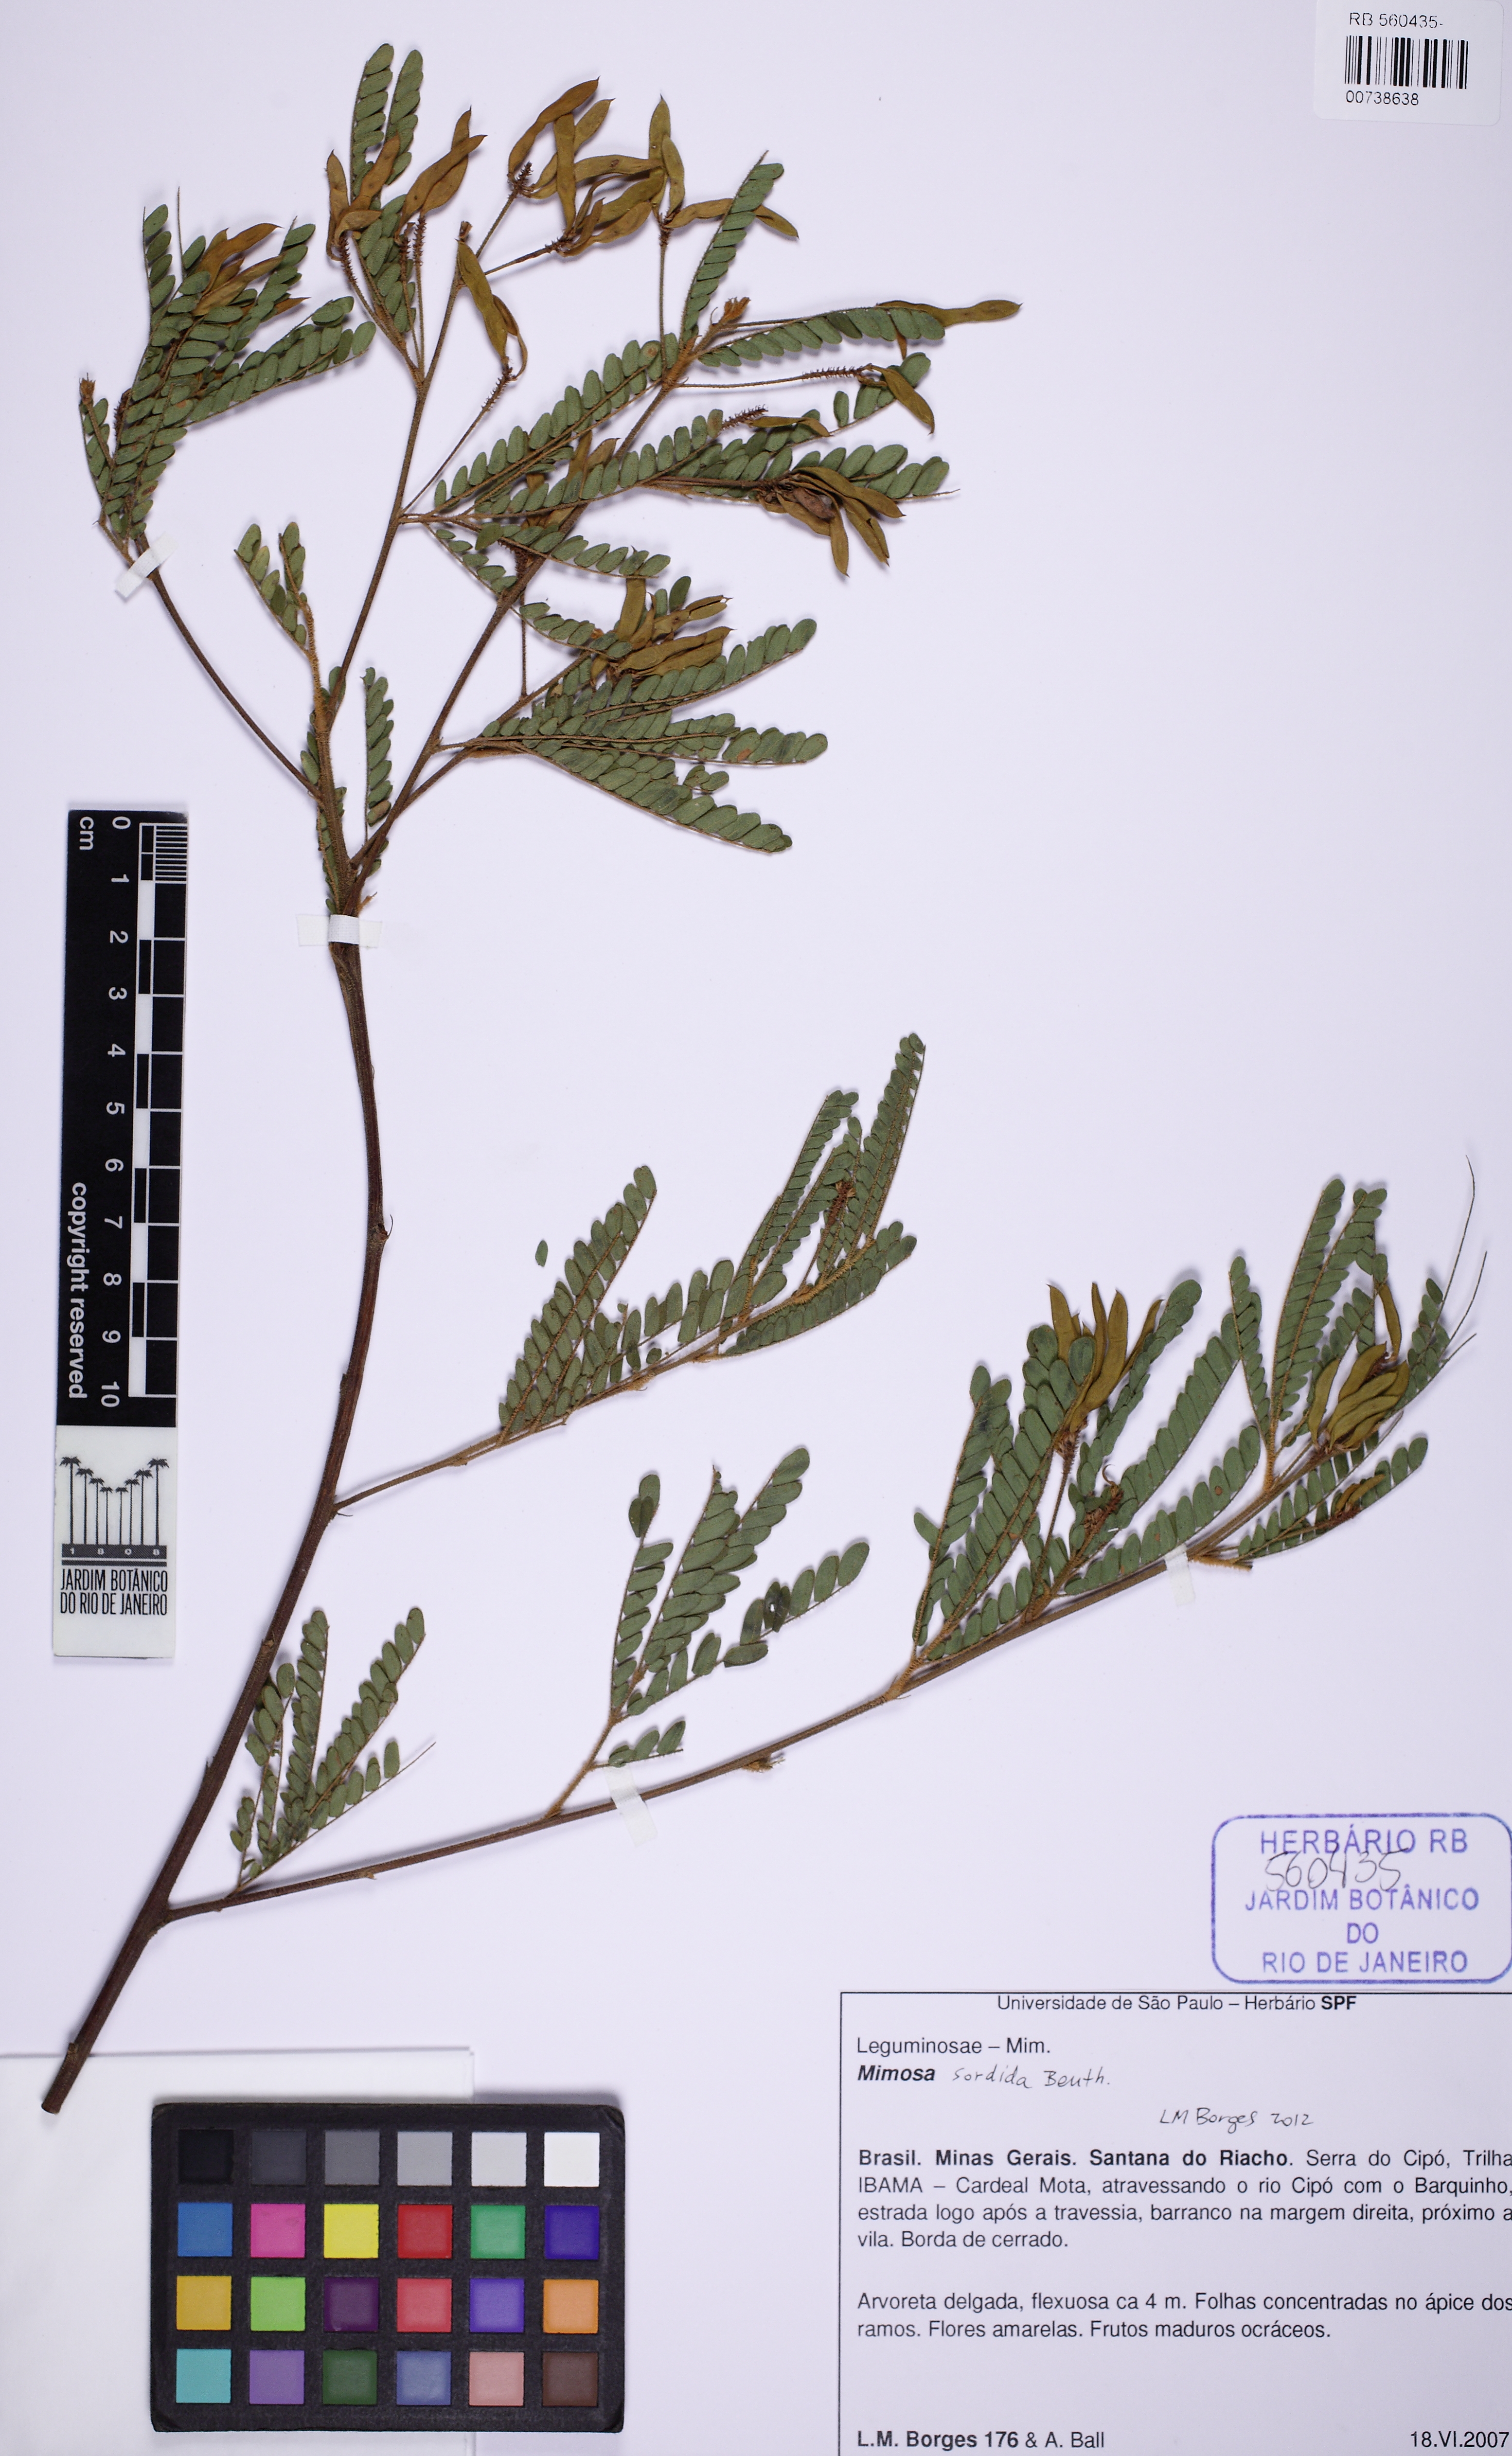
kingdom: Plantae
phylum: Tracheophyta
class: Magnoliopsida
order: Fabales
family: Fabaceae
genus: Mimosa
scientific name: Mimosa aurivillus
